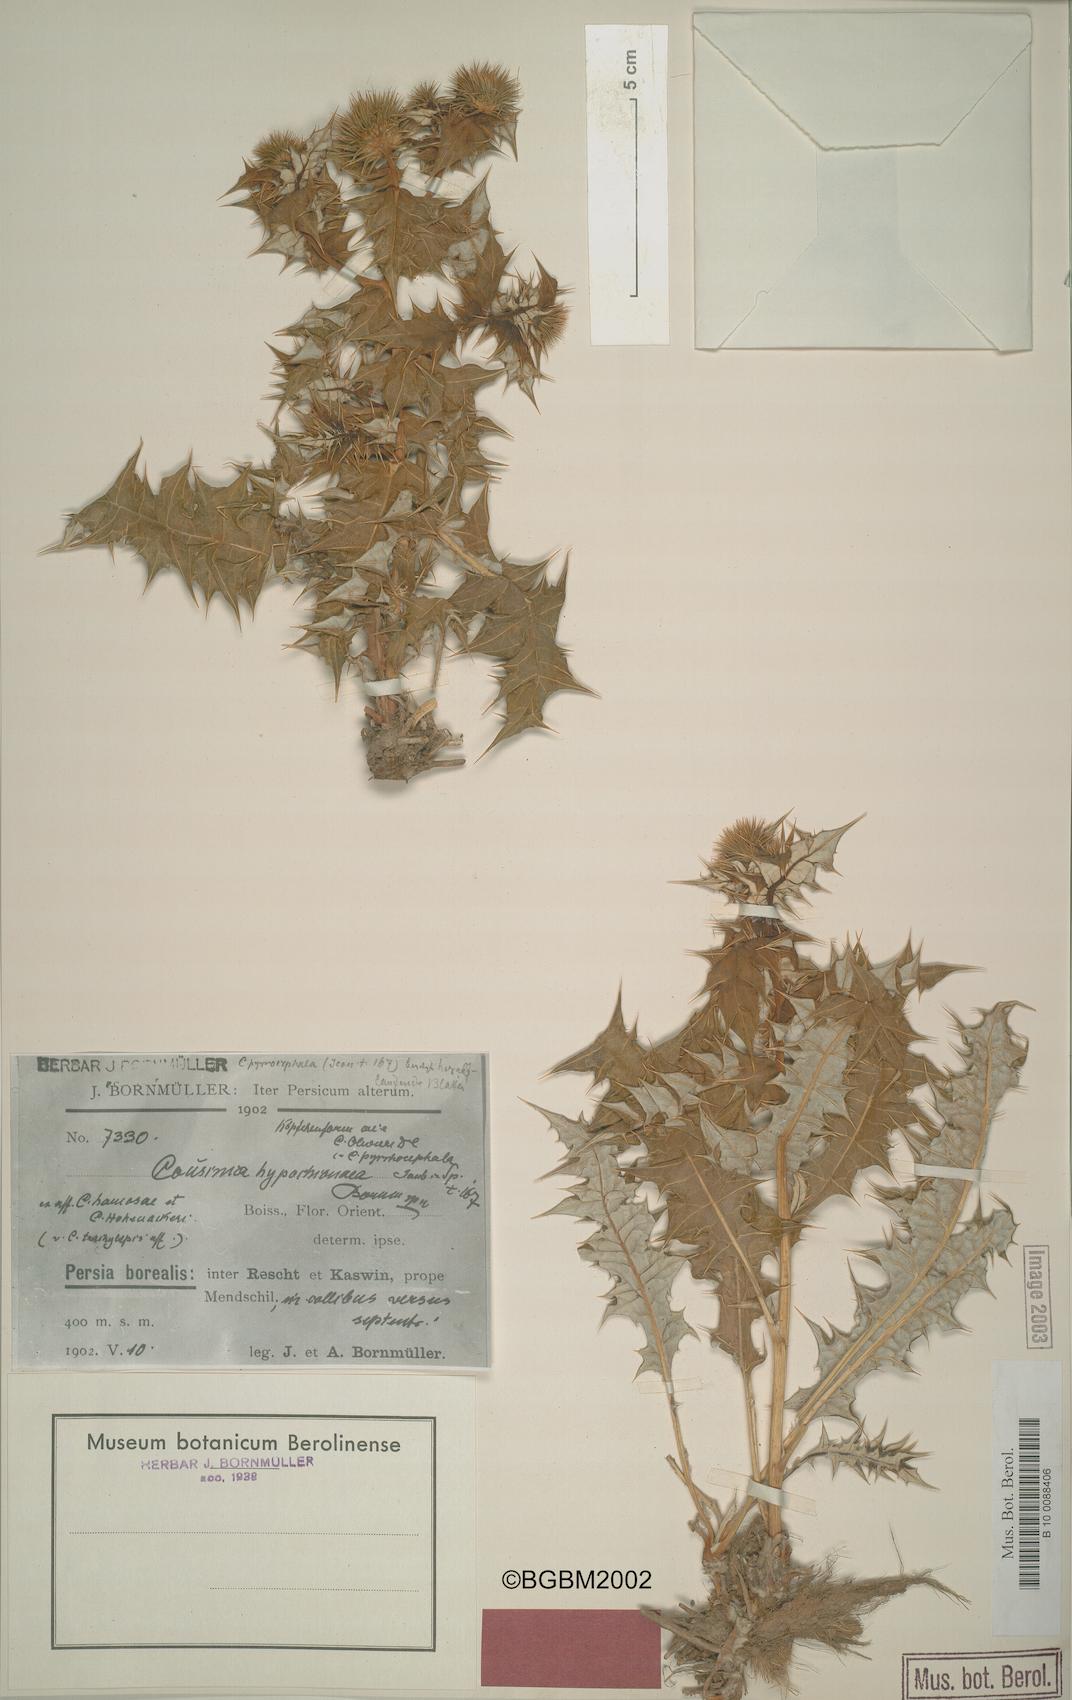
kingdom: Plantae
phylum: Tracheophyta
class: Magnoliopsida
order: Asterales
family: Asteraceae
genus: Cousinia
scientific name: Cousinia hypochionea
